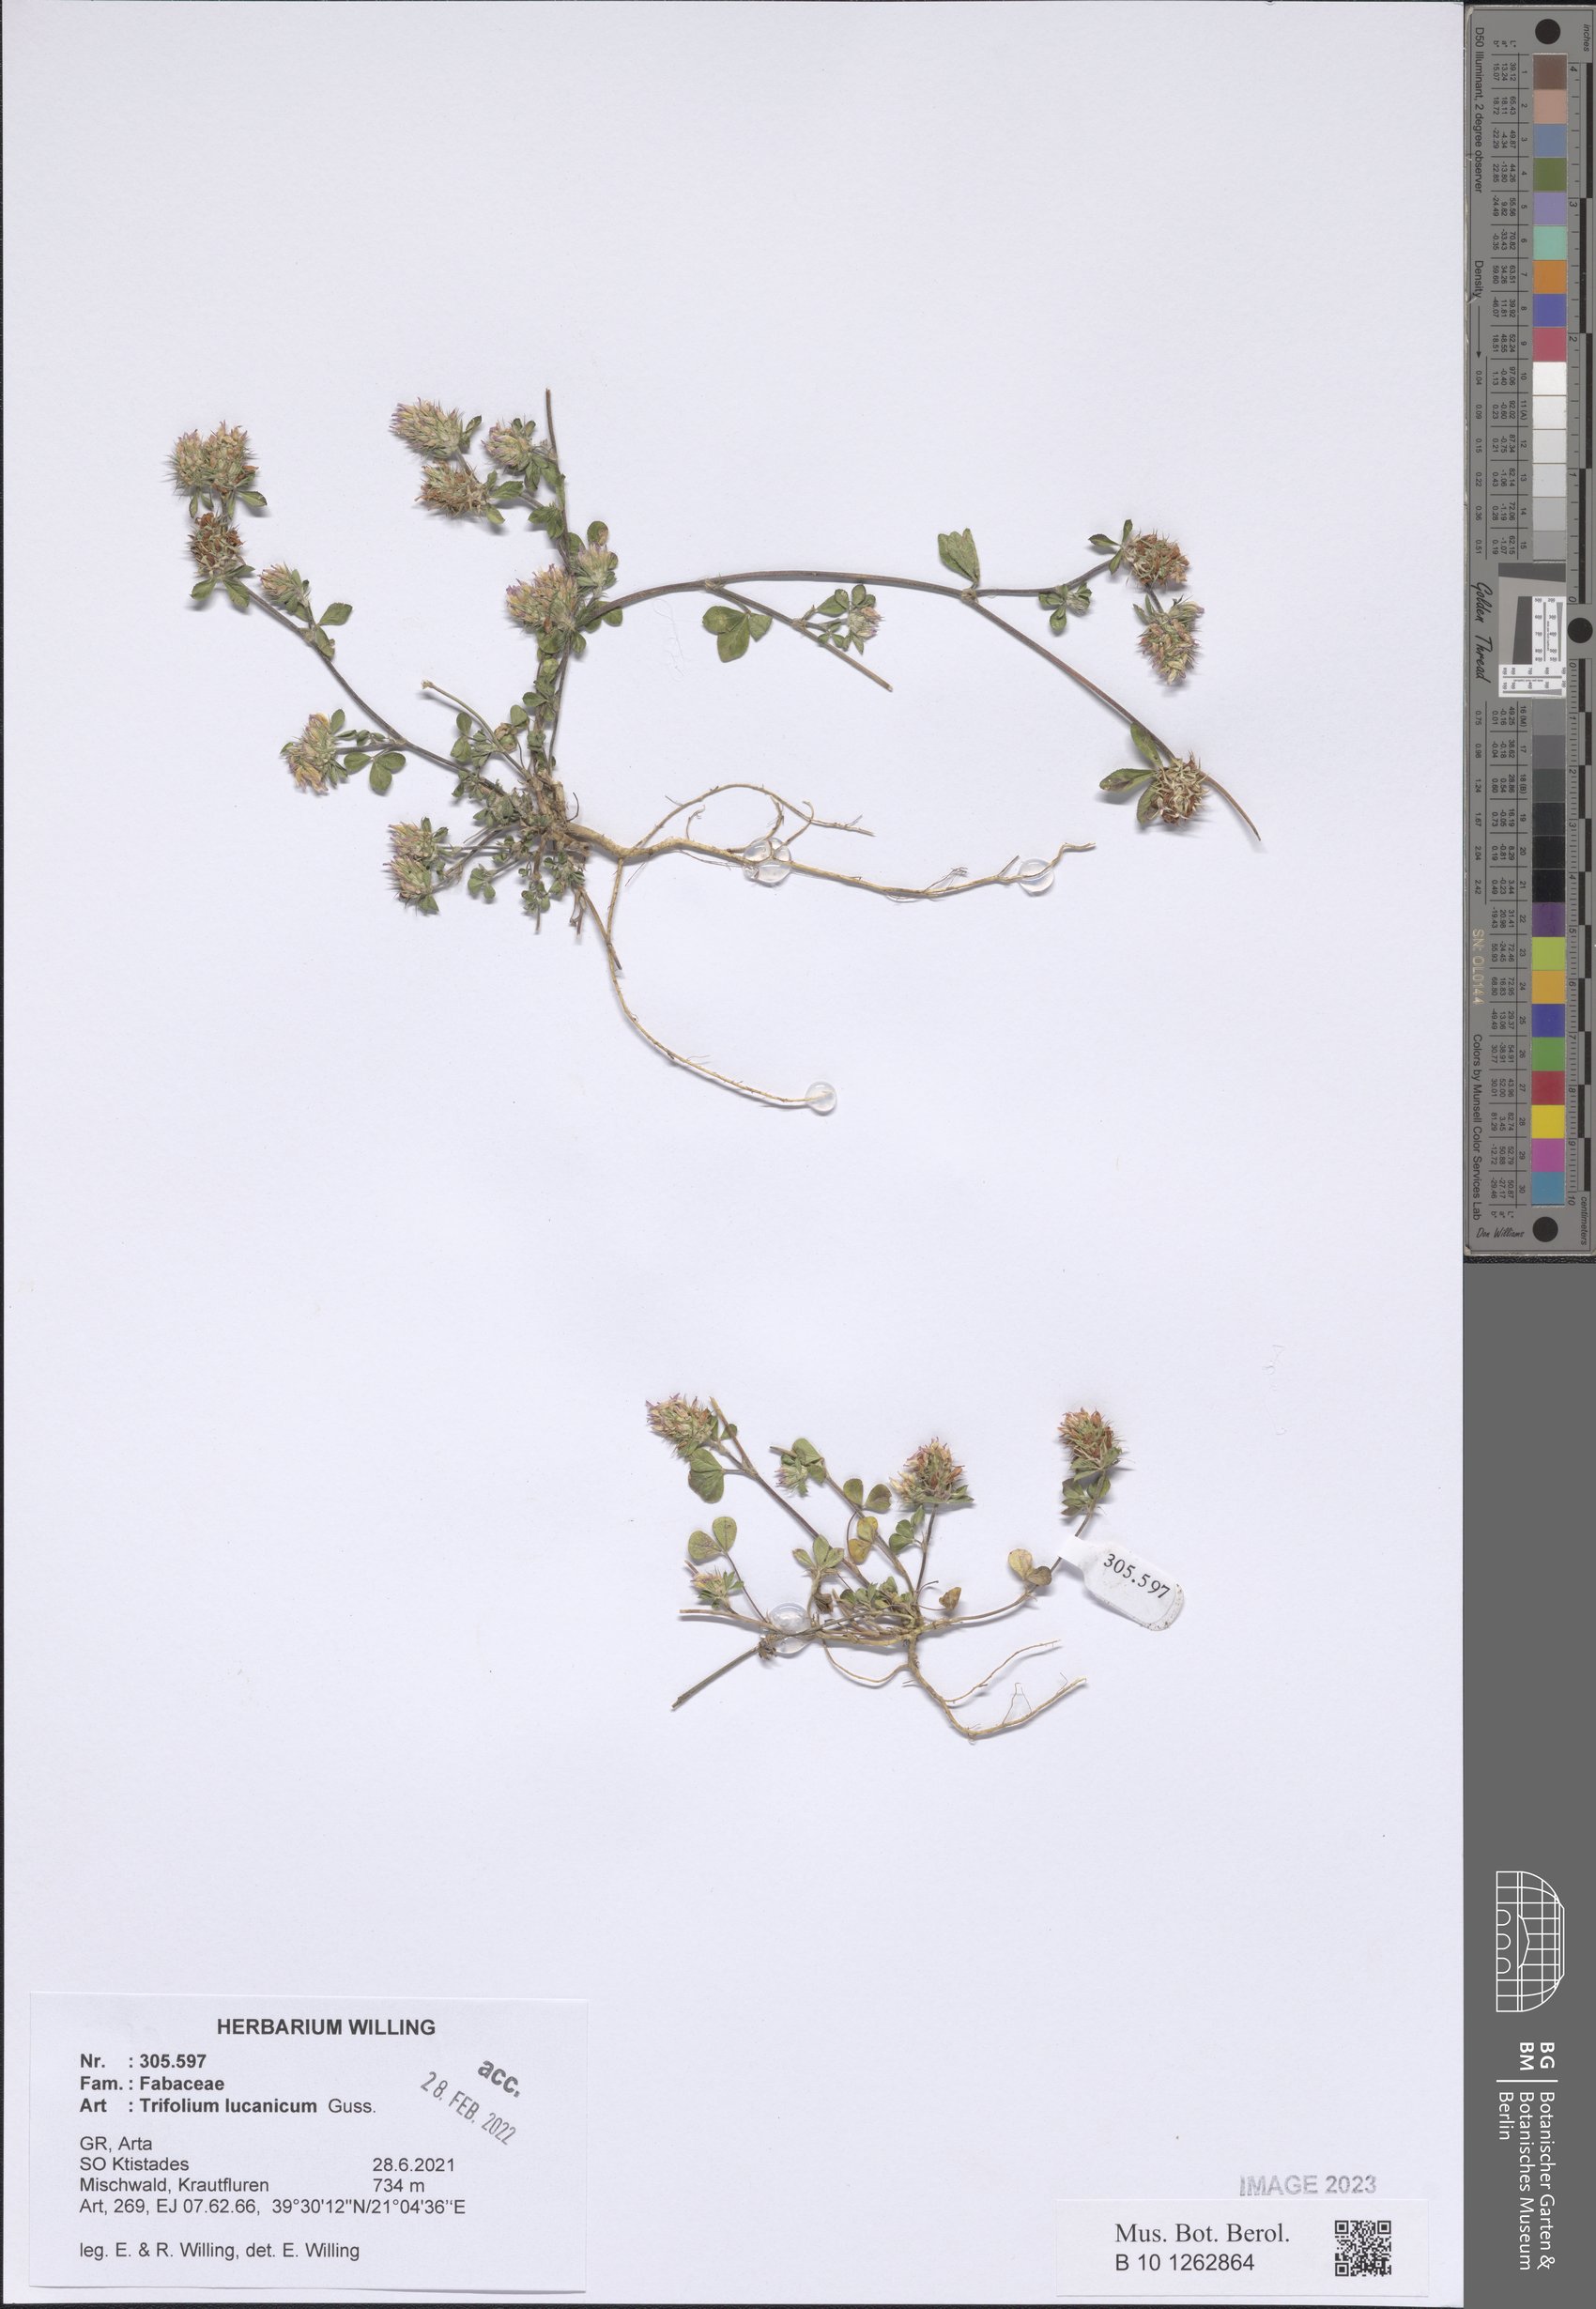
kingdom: Plantae
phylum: Tracheophyta
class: Magnoliopsida
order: Fabales
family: Fabaceae
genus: Trifolium
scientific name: Trifolium lucanicum
